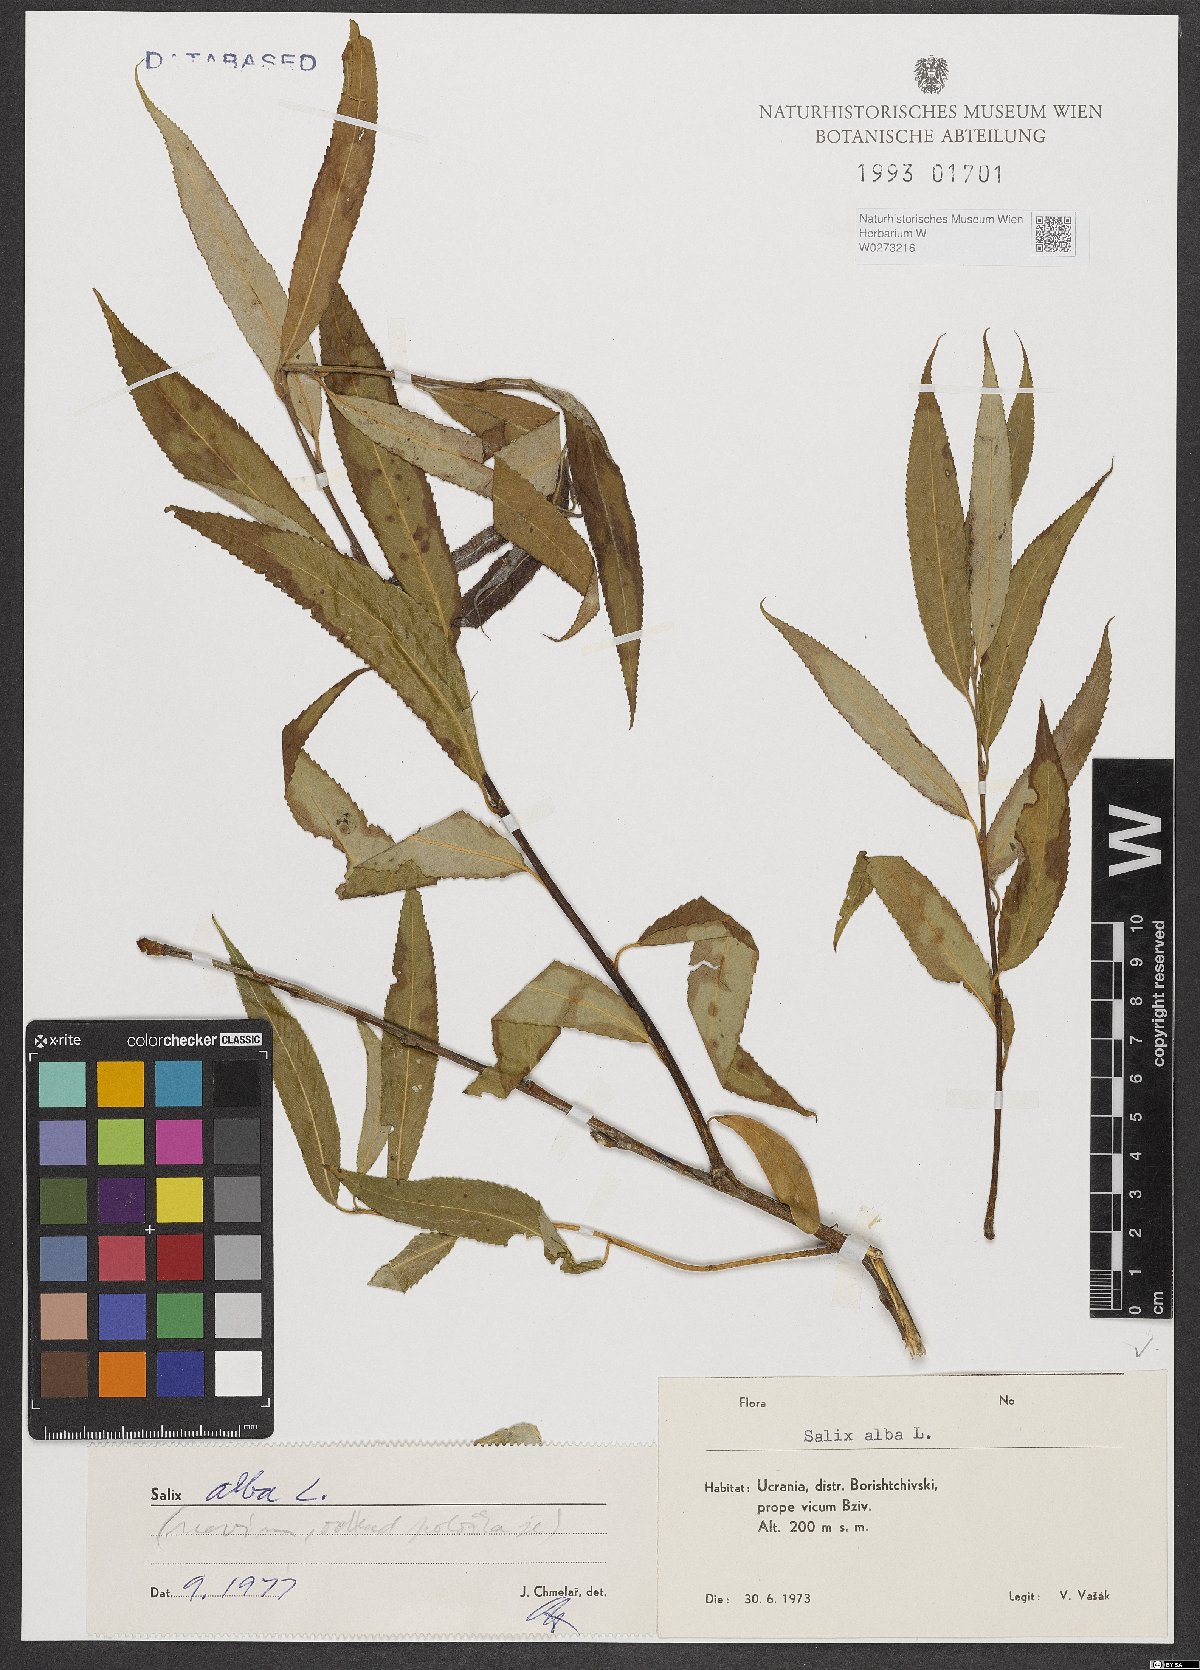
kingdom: Plantae
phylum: Tracheophyta
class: Magnoliopsida
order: Malpighiales
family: Salicaceae
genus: Salix
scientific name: Salix alba
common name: White willow
